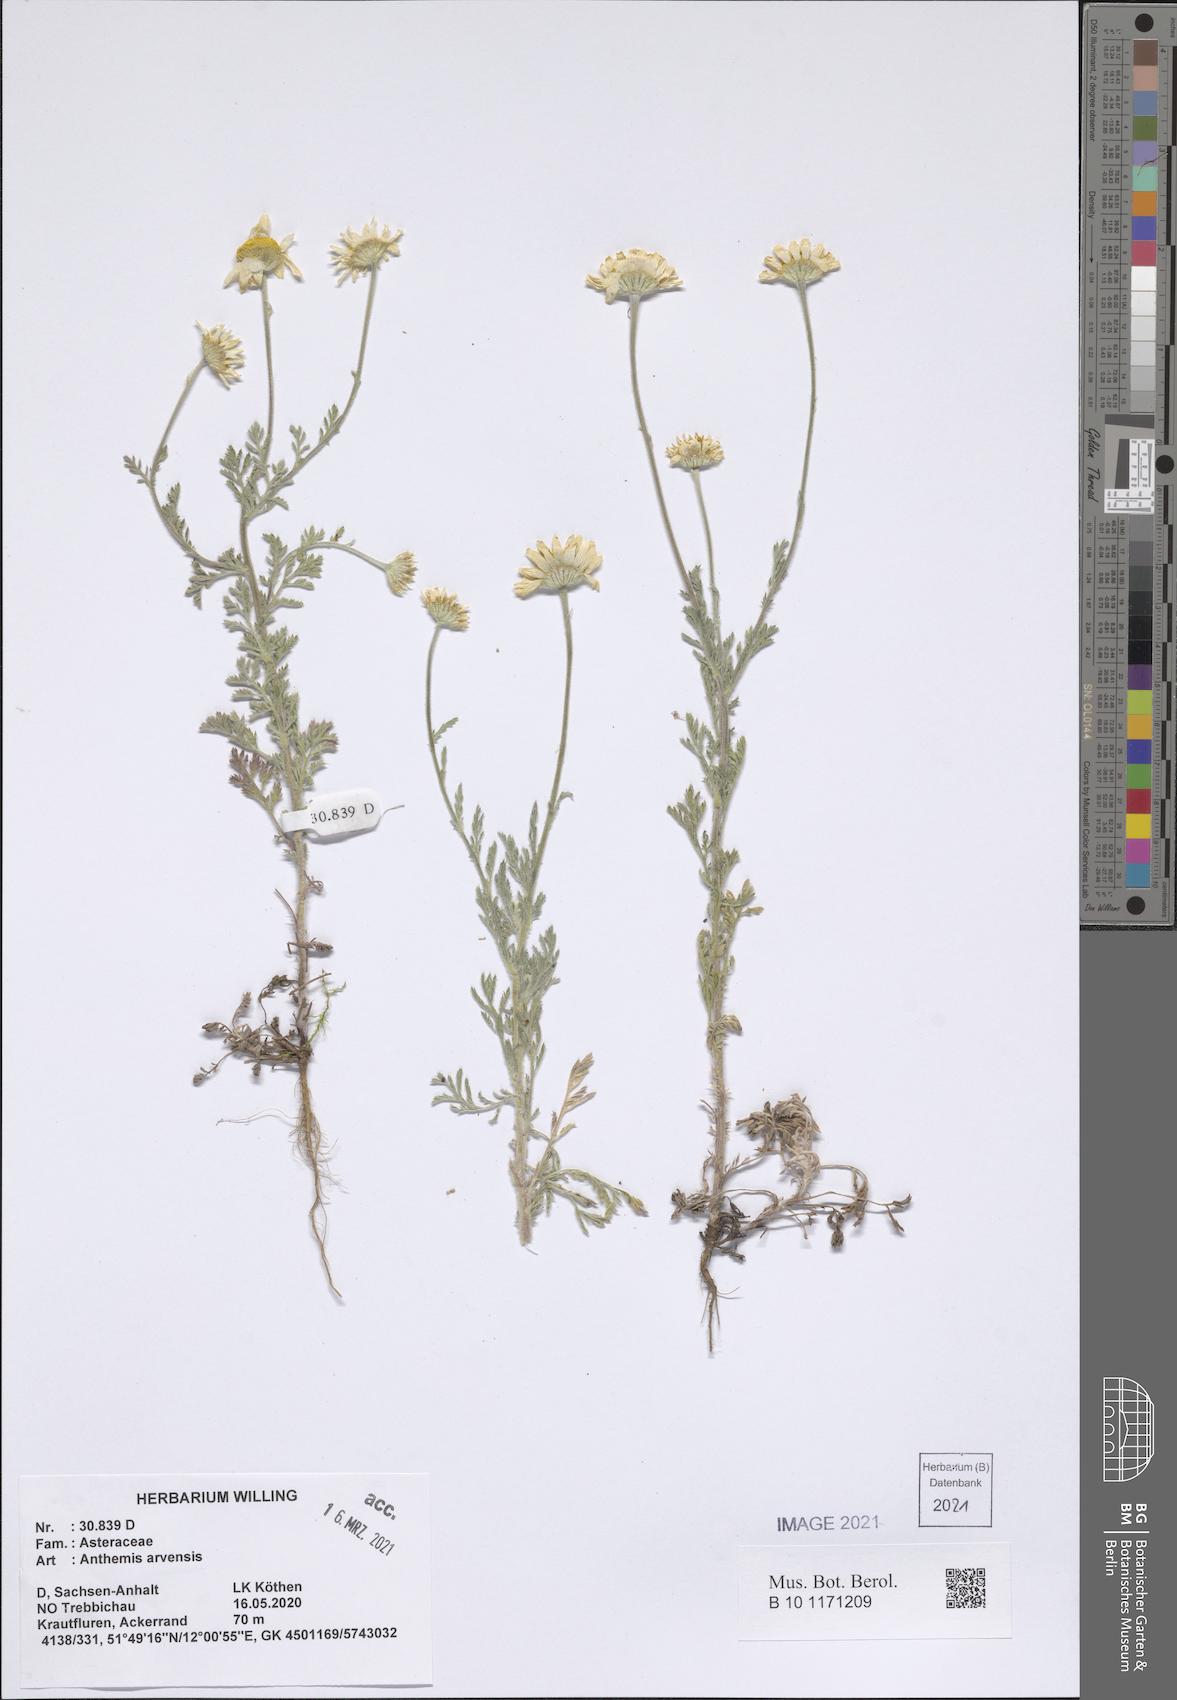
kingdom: Plantae
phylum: Tracheophyta
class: Magnoliopsida
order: Asterales
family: Asteraceae
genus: Anthemis
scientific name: Anthemis
